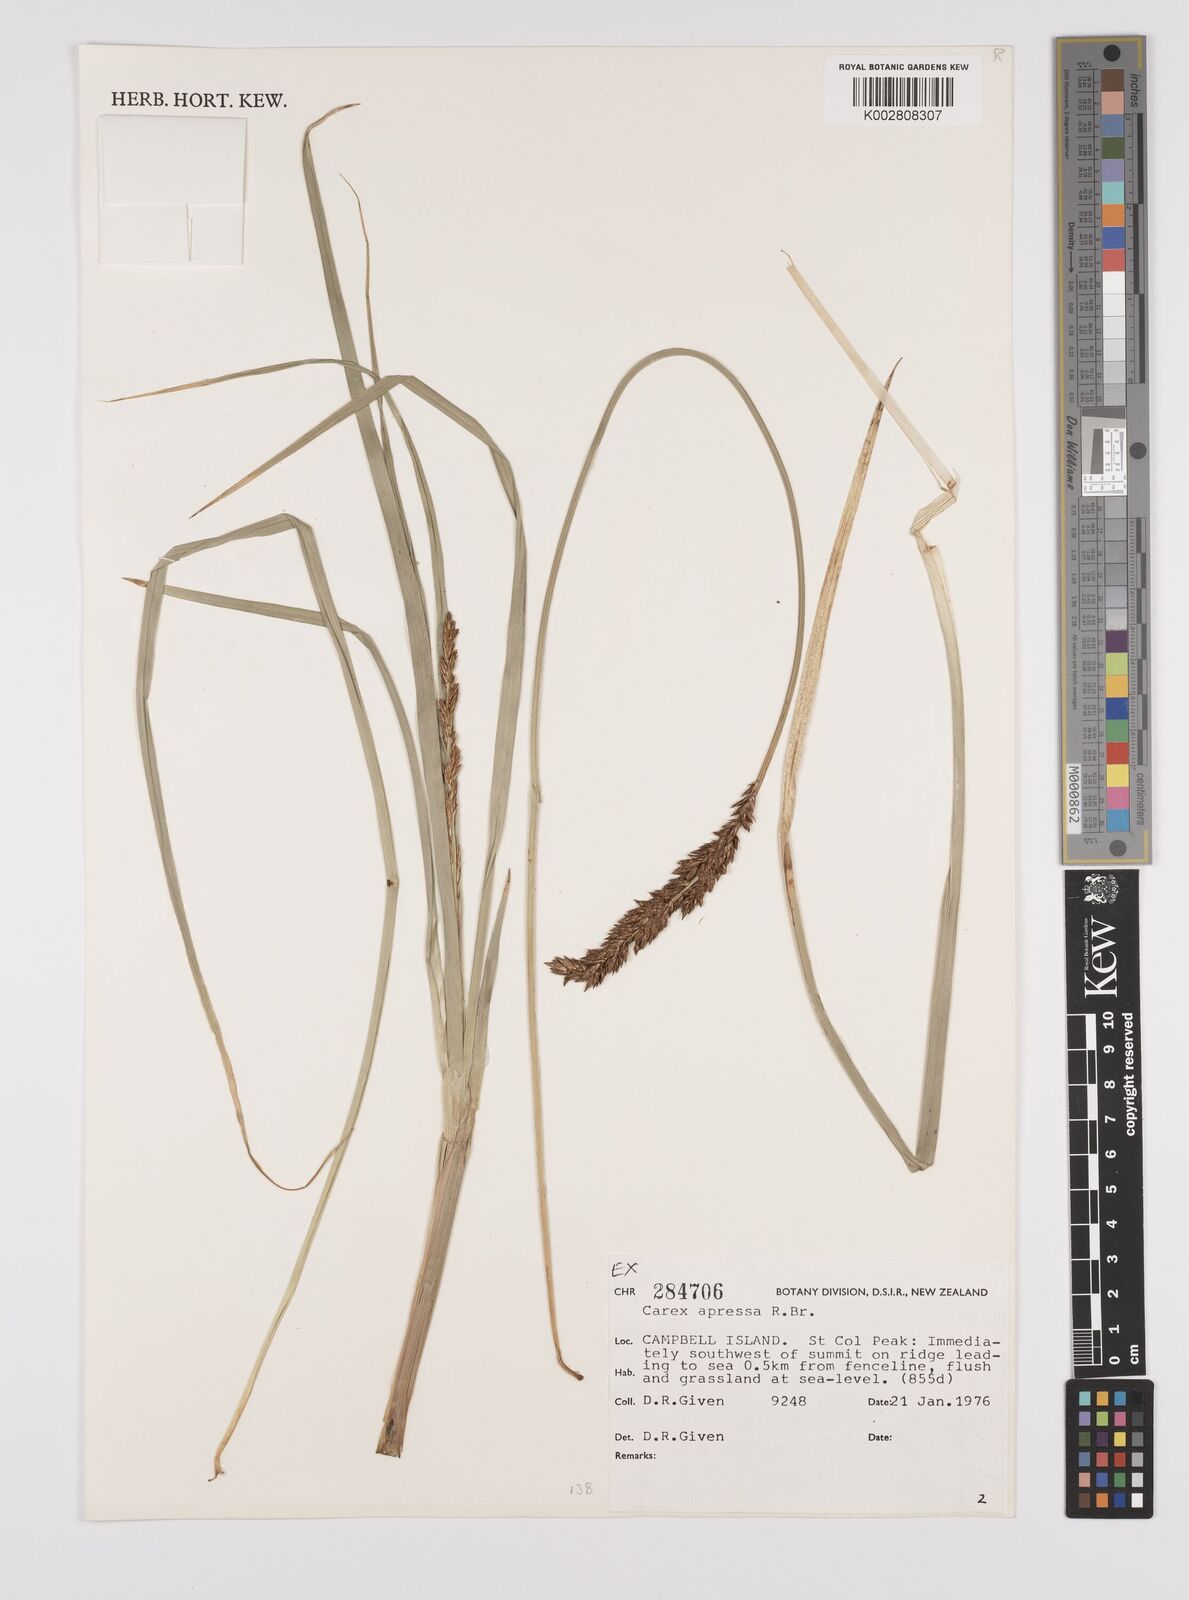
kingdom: Plantae
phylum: Tracheophyta
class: Liliopsida
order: Poales
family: Cyperaceae
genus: Carex
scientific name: Carex appressa
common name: Tussock sedge
